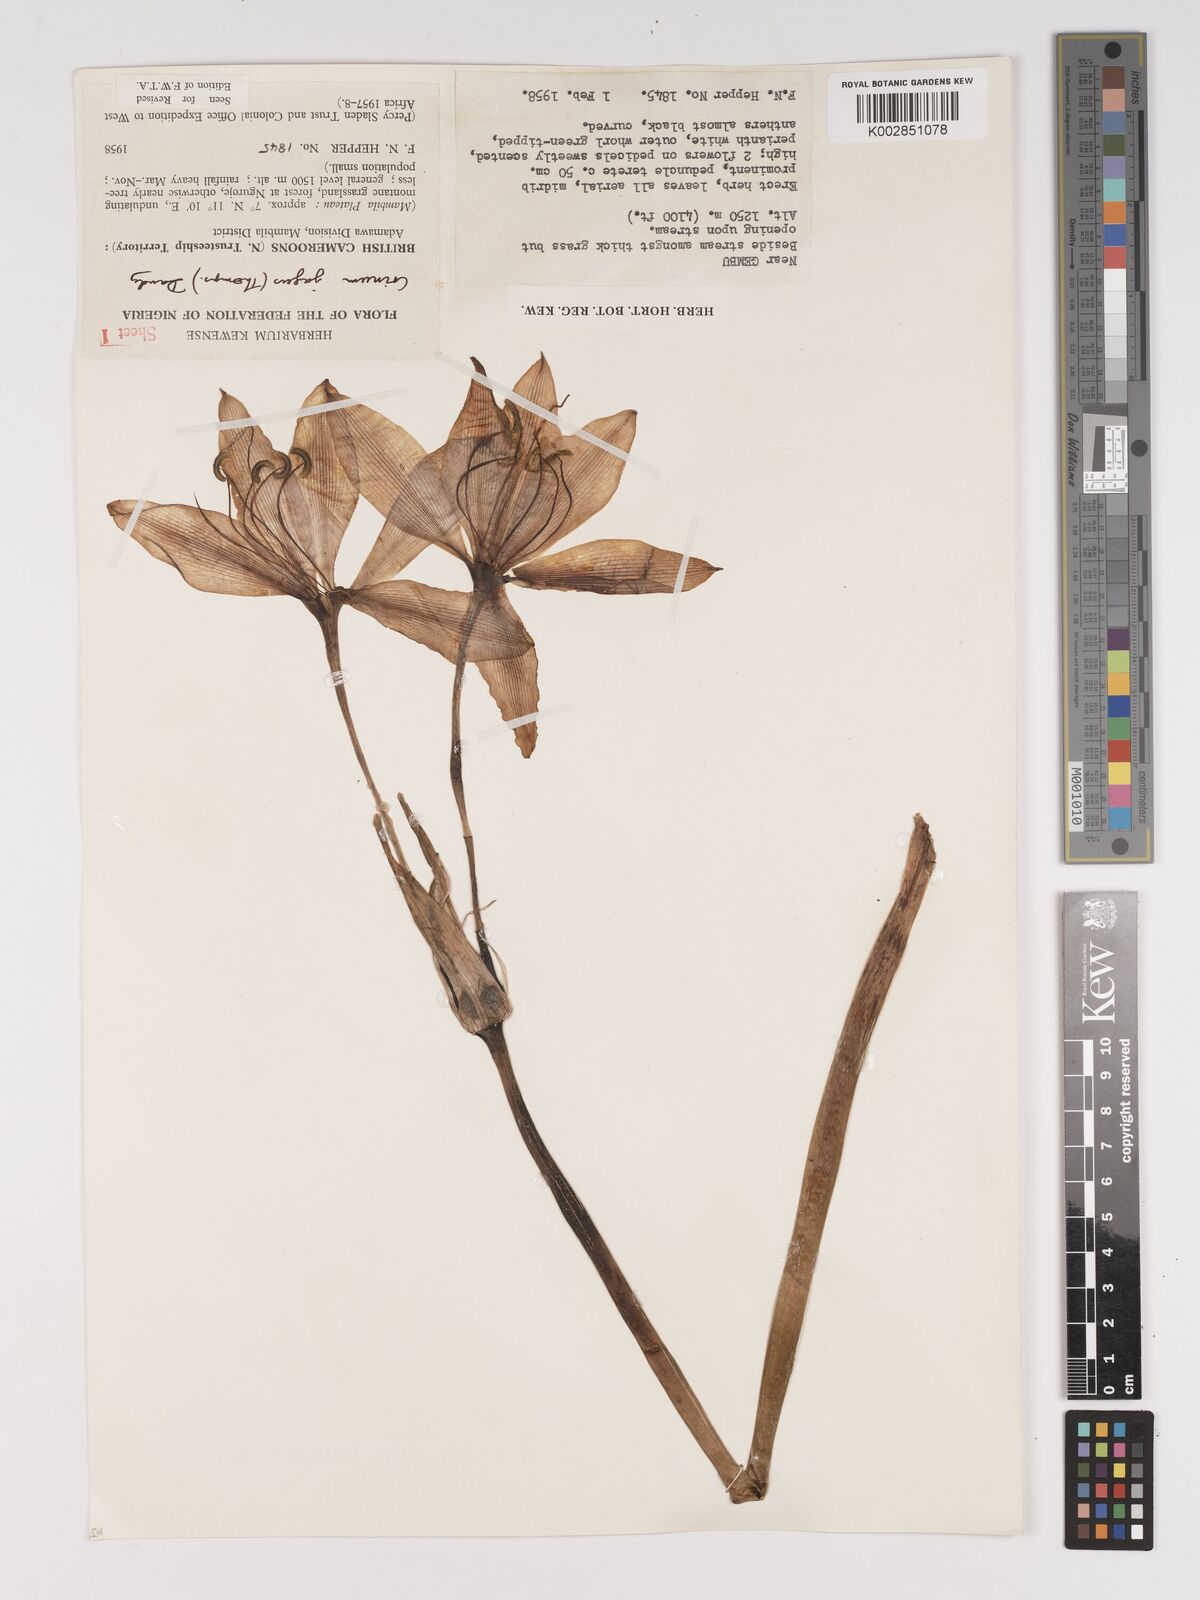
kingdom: Plantae
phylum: Tracheophyta
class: Liliopsida
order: Asparagales
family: Amaryllidaceae
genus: Crinum
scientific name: Crinum jagus
